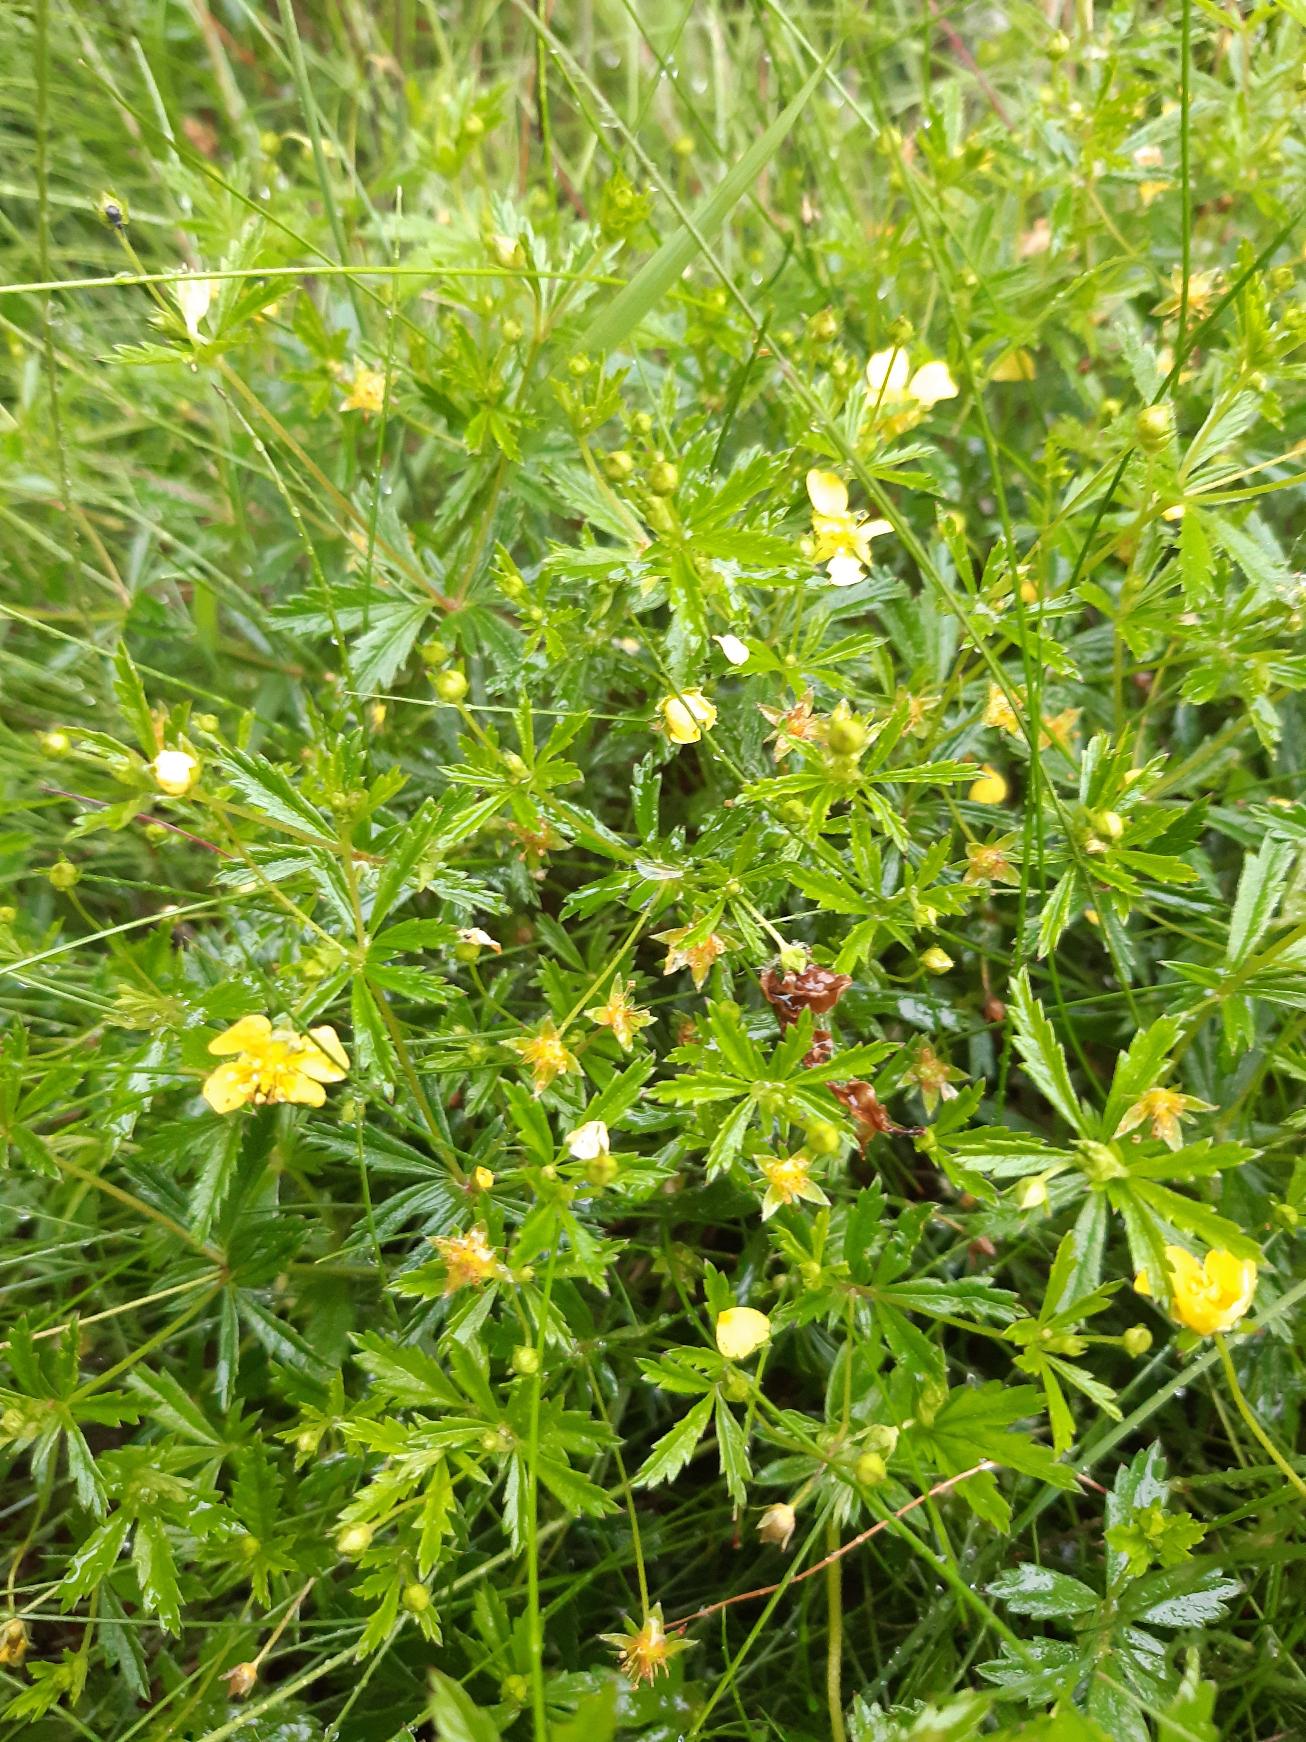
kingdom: Plantae
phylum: Tracheophyta
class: Magnoliopsida
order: Rosales
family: Rosaceae
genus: Potentilla
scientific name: Potentilla erecta
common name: Tormentil
